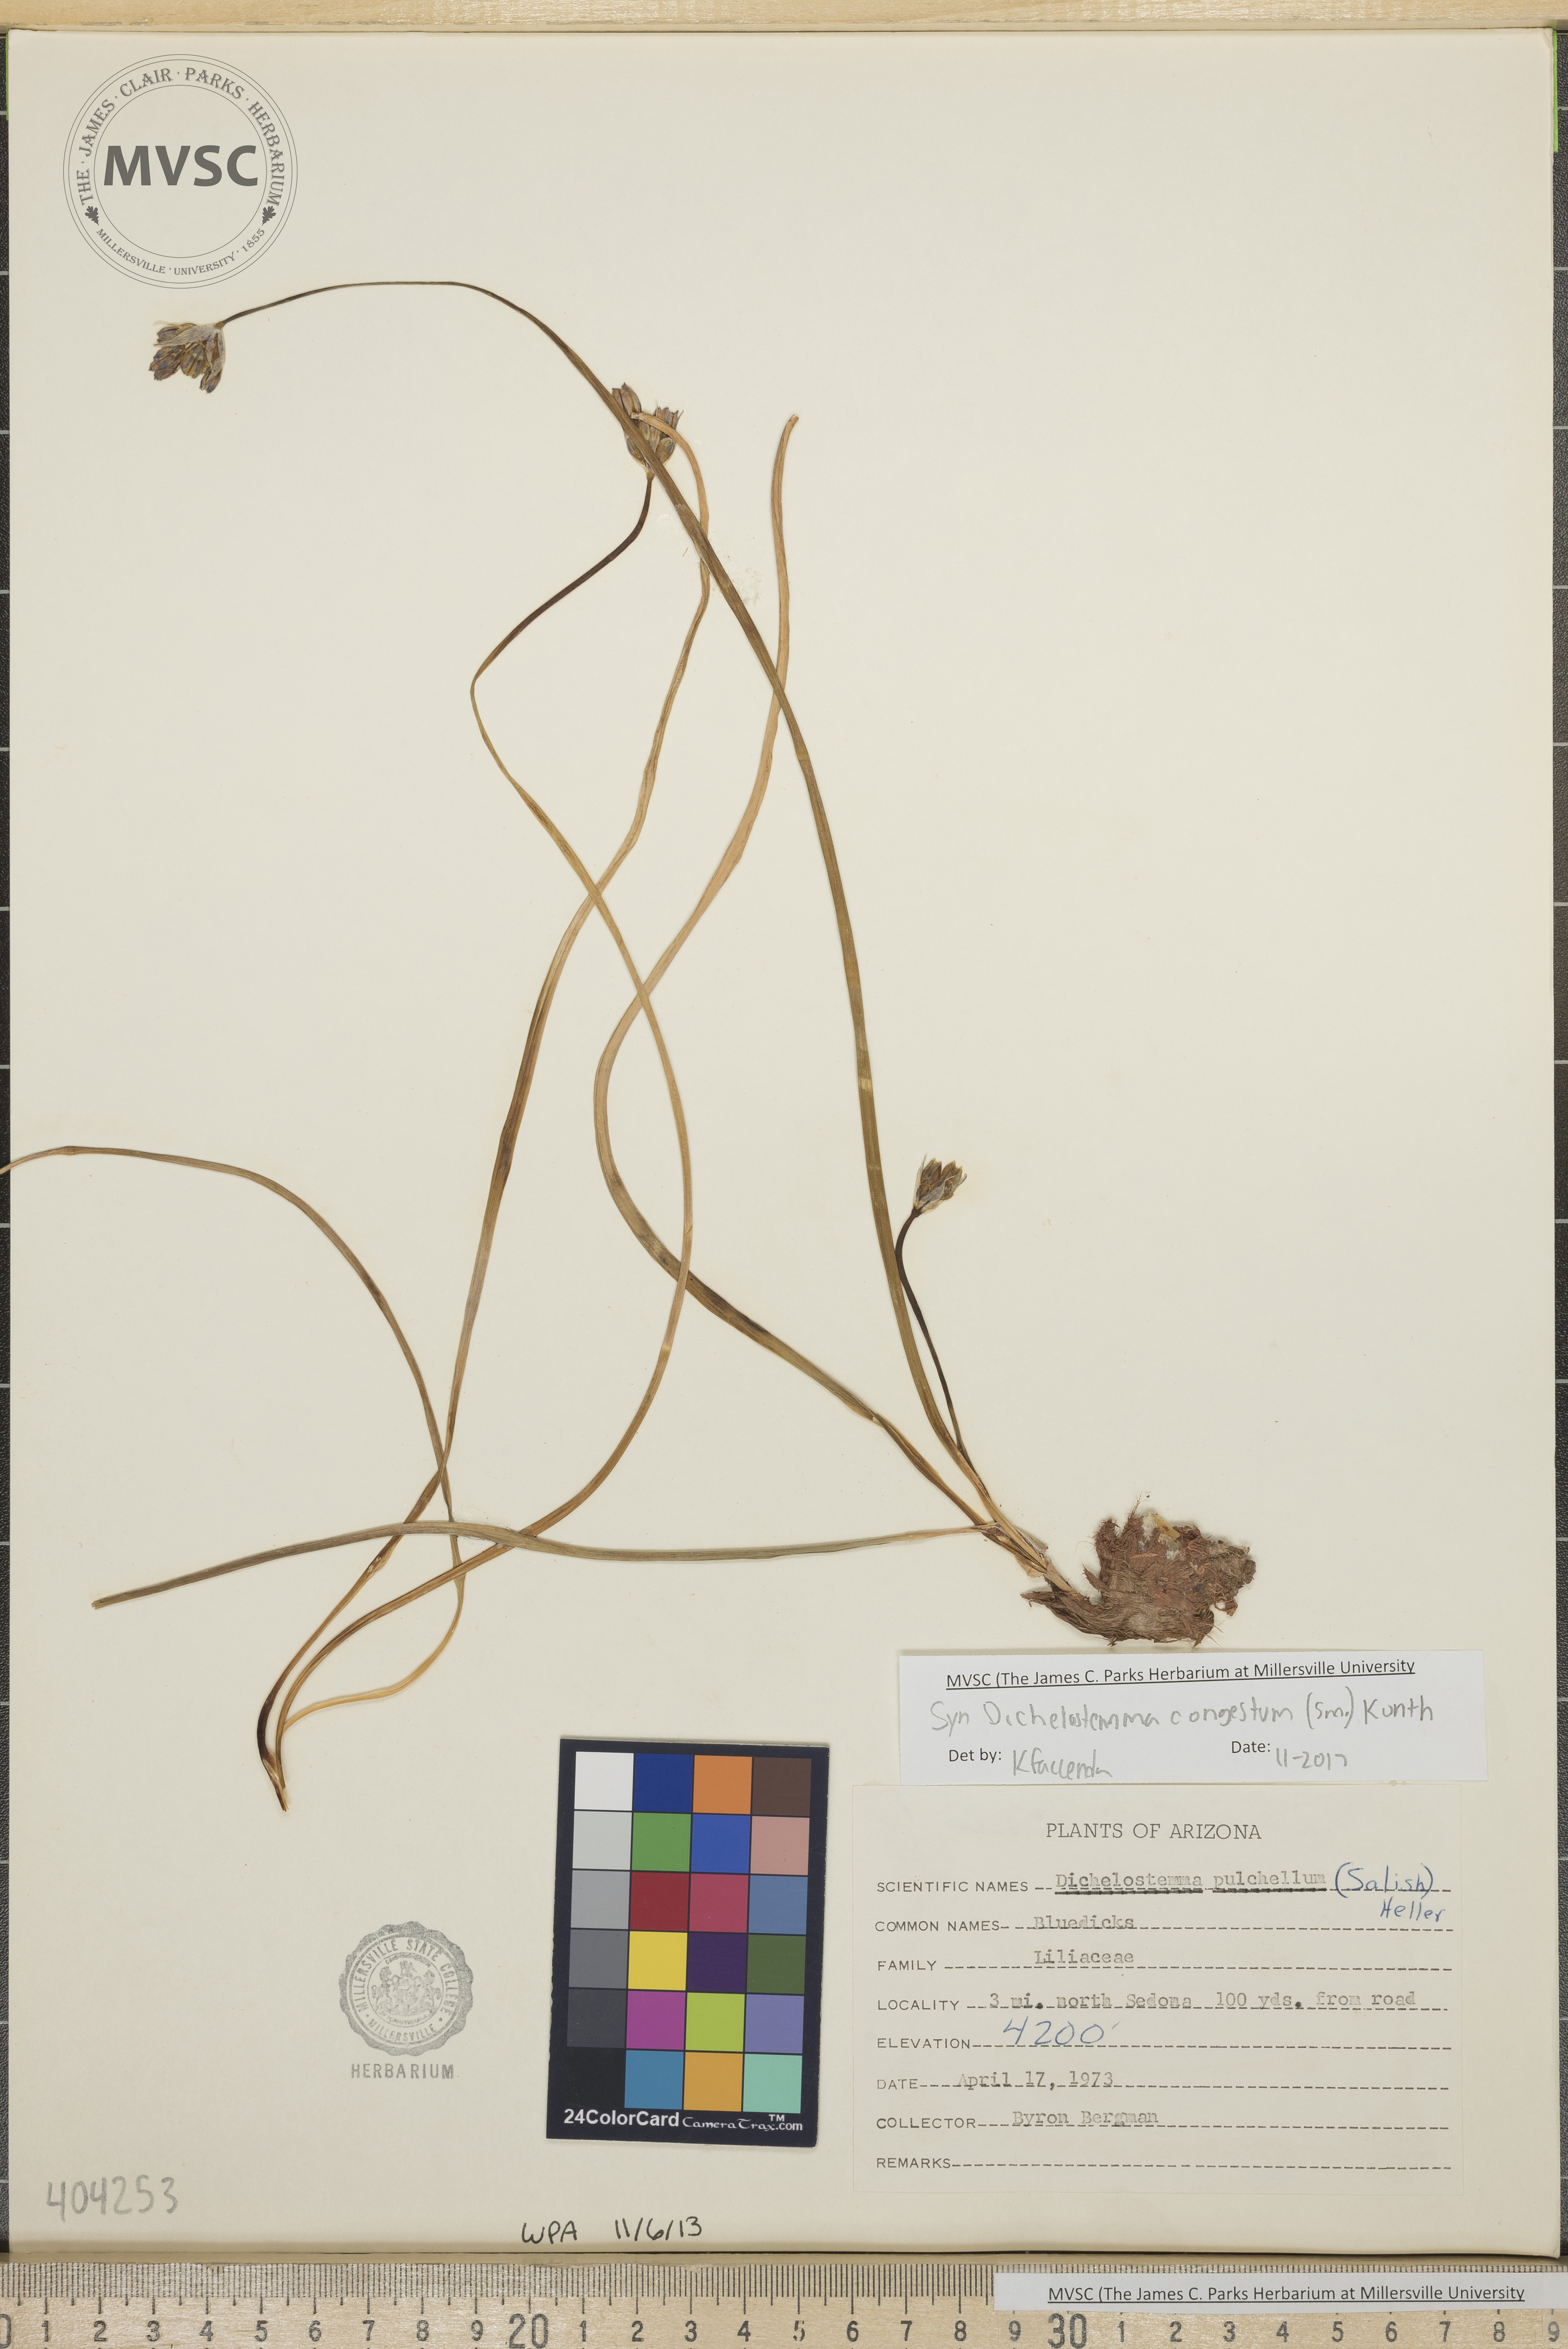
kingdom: Plantae
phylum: Tracheophyta
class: Liliopsida
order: Asparagales
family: Asparagaceae
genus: Dipterostemon
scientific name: Dipterostemon capitatus
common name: Bluedicks
